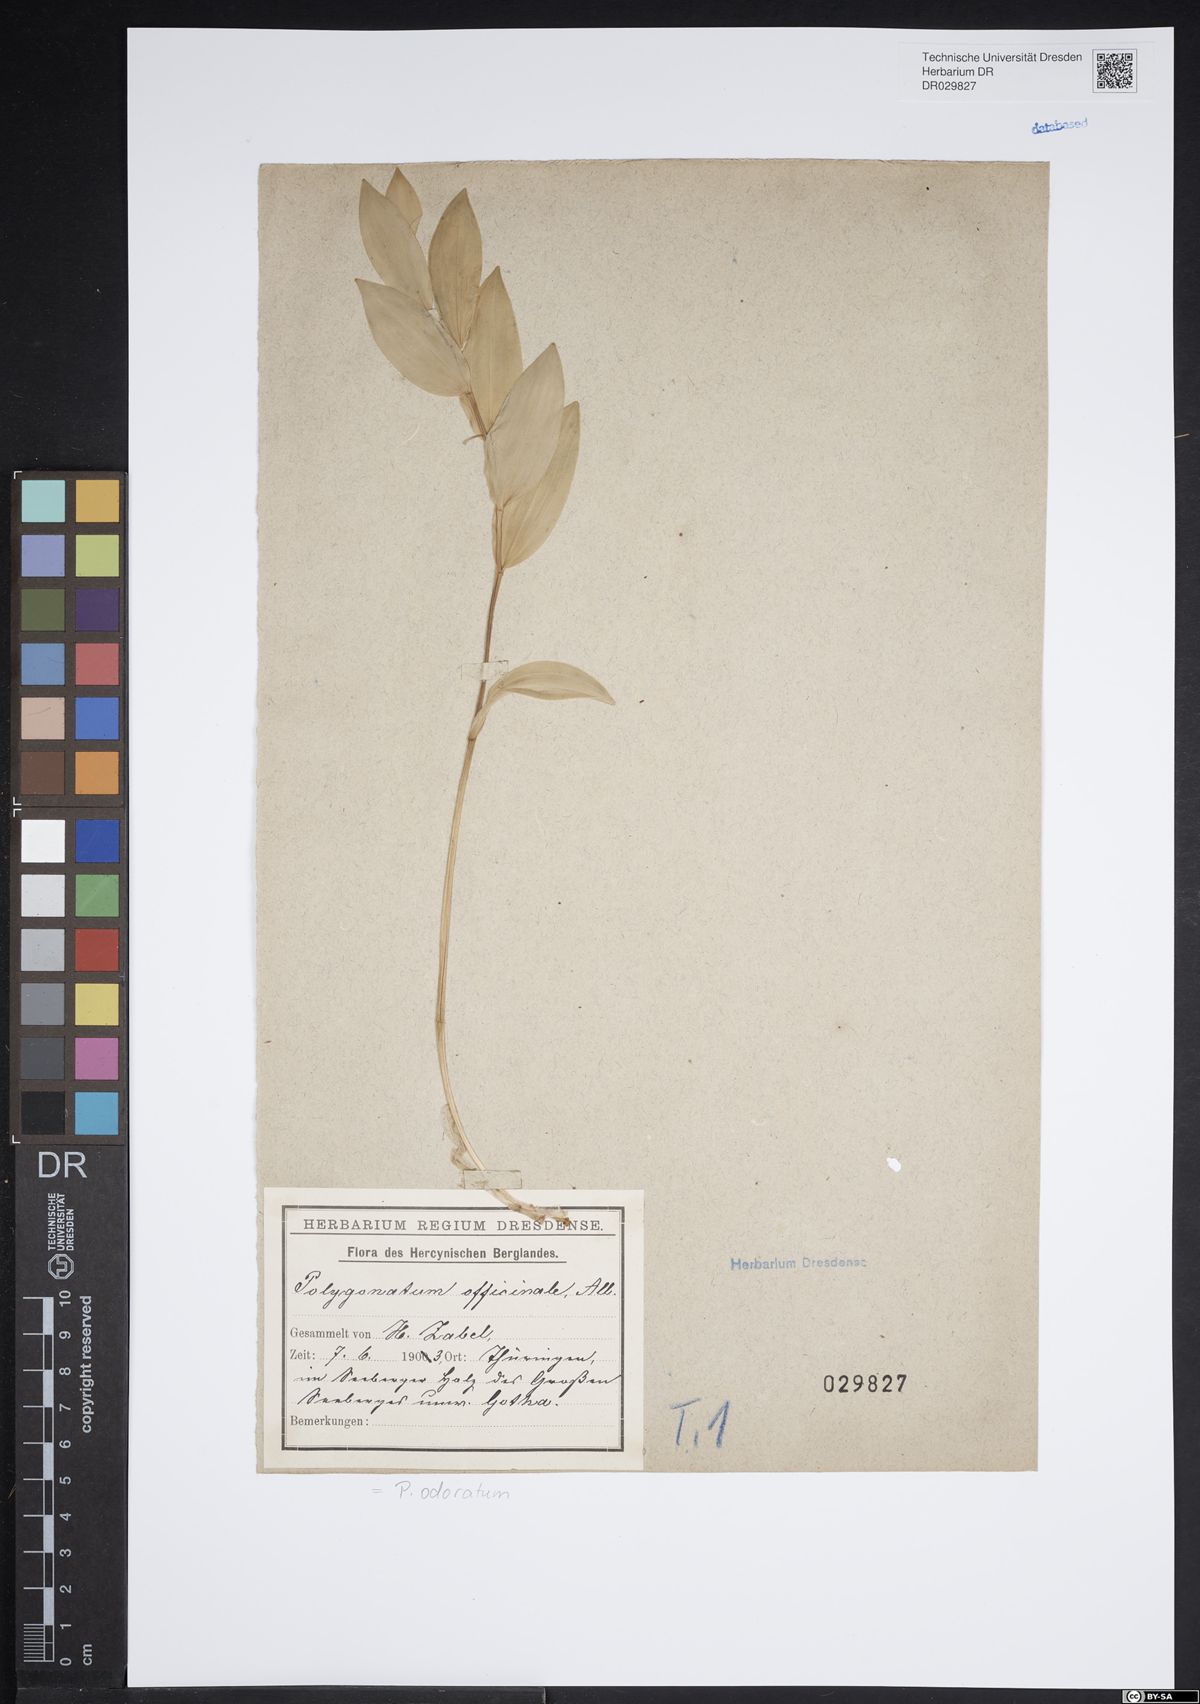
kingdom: Plantae
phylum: Tracheophyta
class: Liliopsida
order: Asparagales
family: Asparagaceae
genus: Polygonatum
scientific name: Polygonatum odoratum
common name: Angular solomon's-seal
